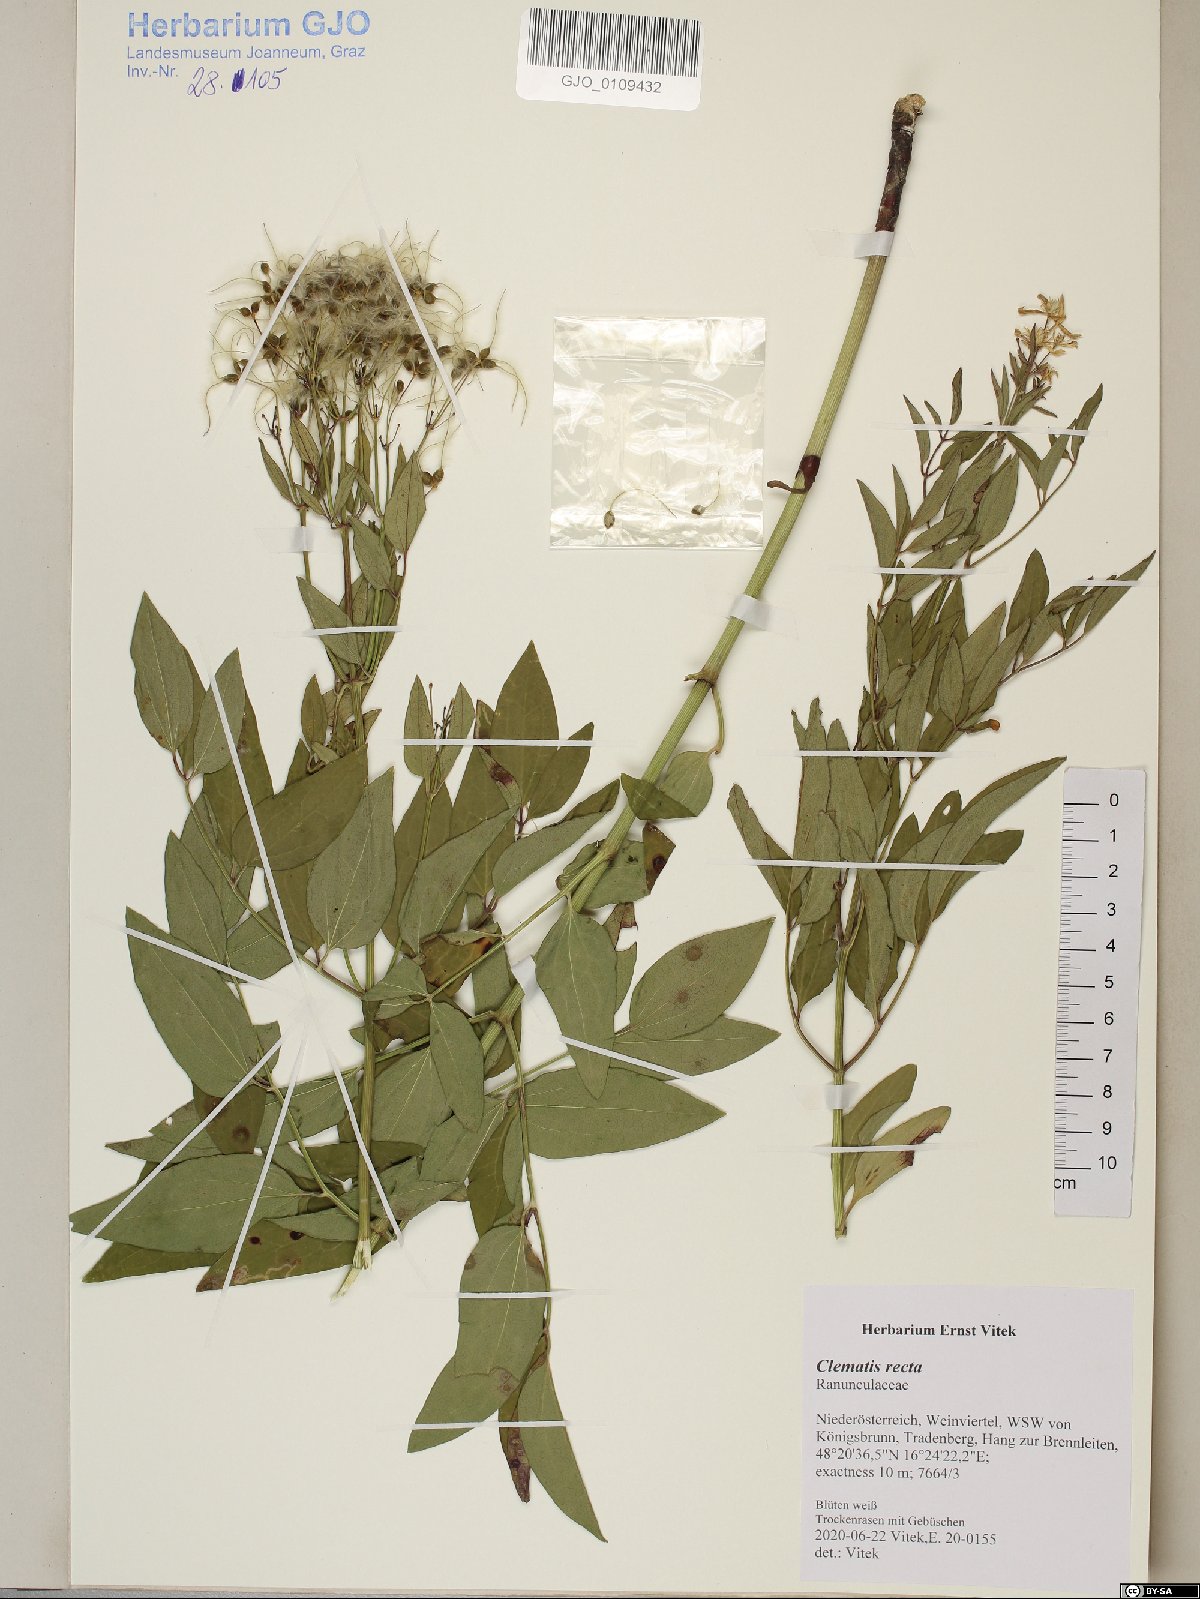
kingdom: Plantae
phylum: Tracheophyta
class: Magnoliopsida
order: Ranunculales
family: Ranunculaceae
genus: Clematis
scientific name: Clematis recta
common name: Ground clematis
